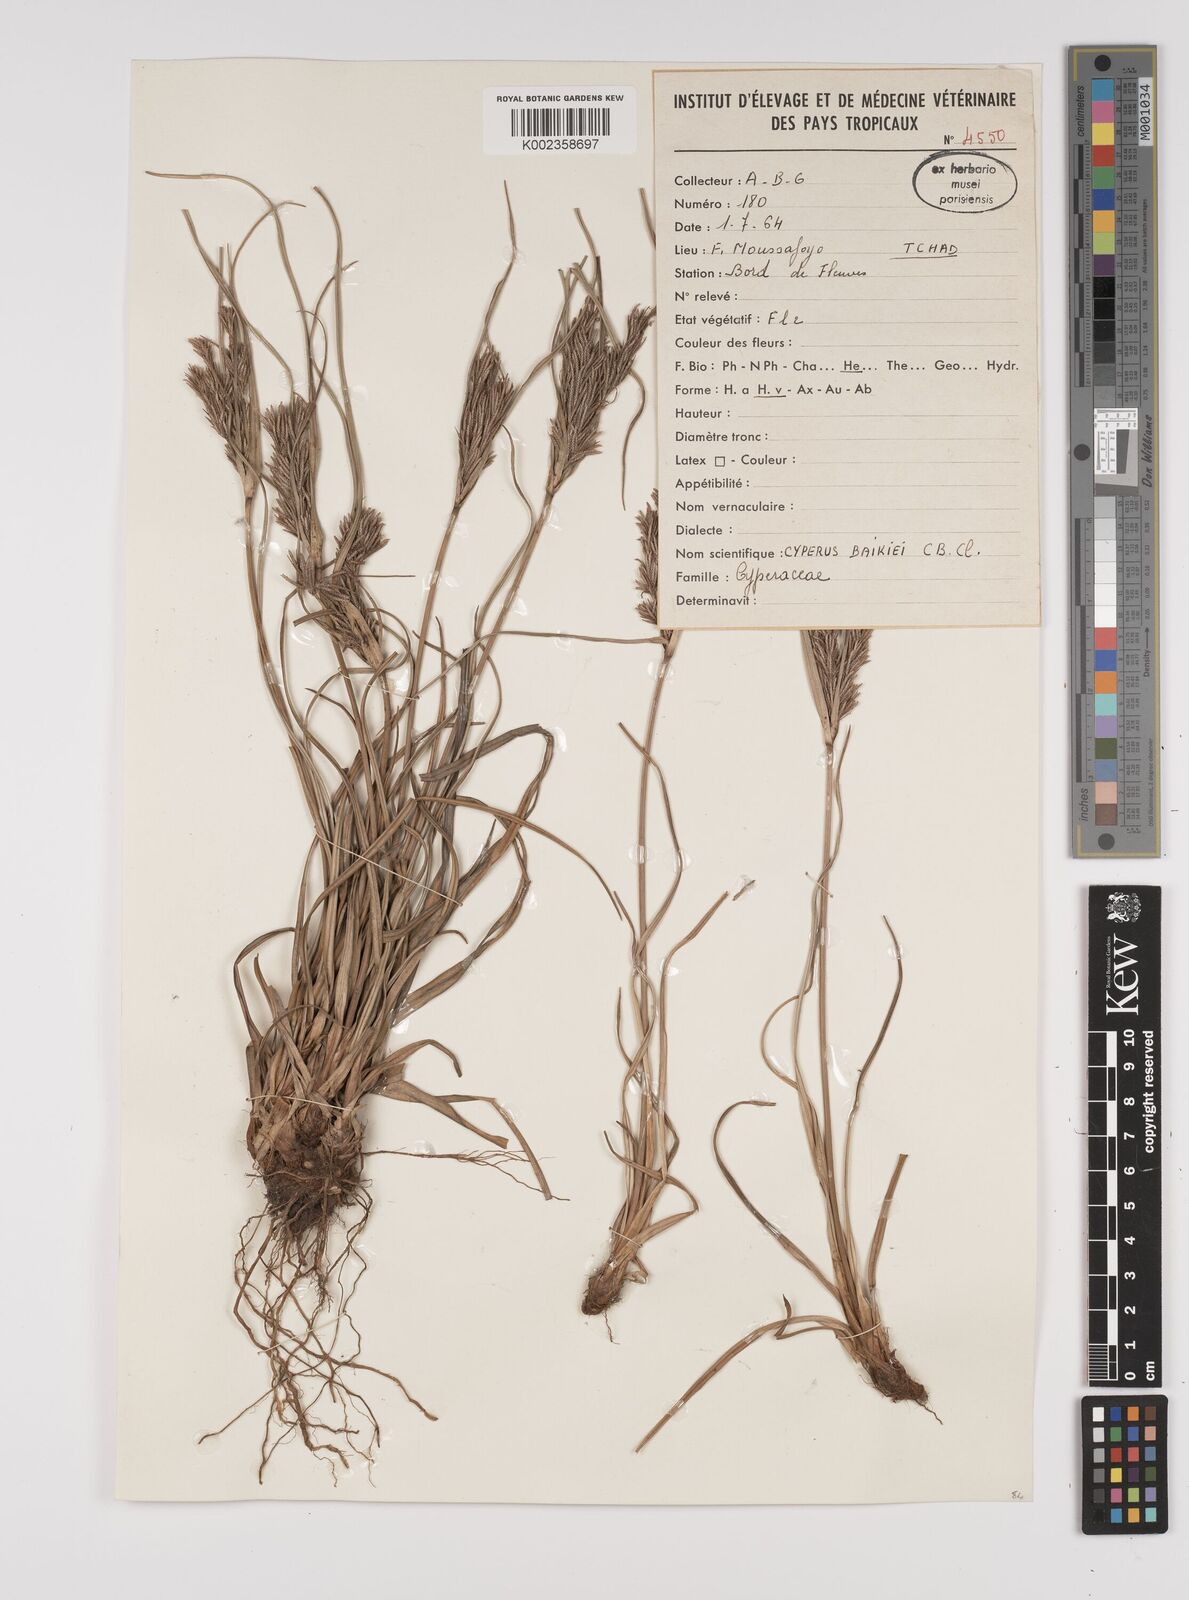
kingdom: Plantae
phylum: Tracheophyta
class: Liliopsida
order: Poales
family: Cyperaceae
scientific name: Cyperaceae
